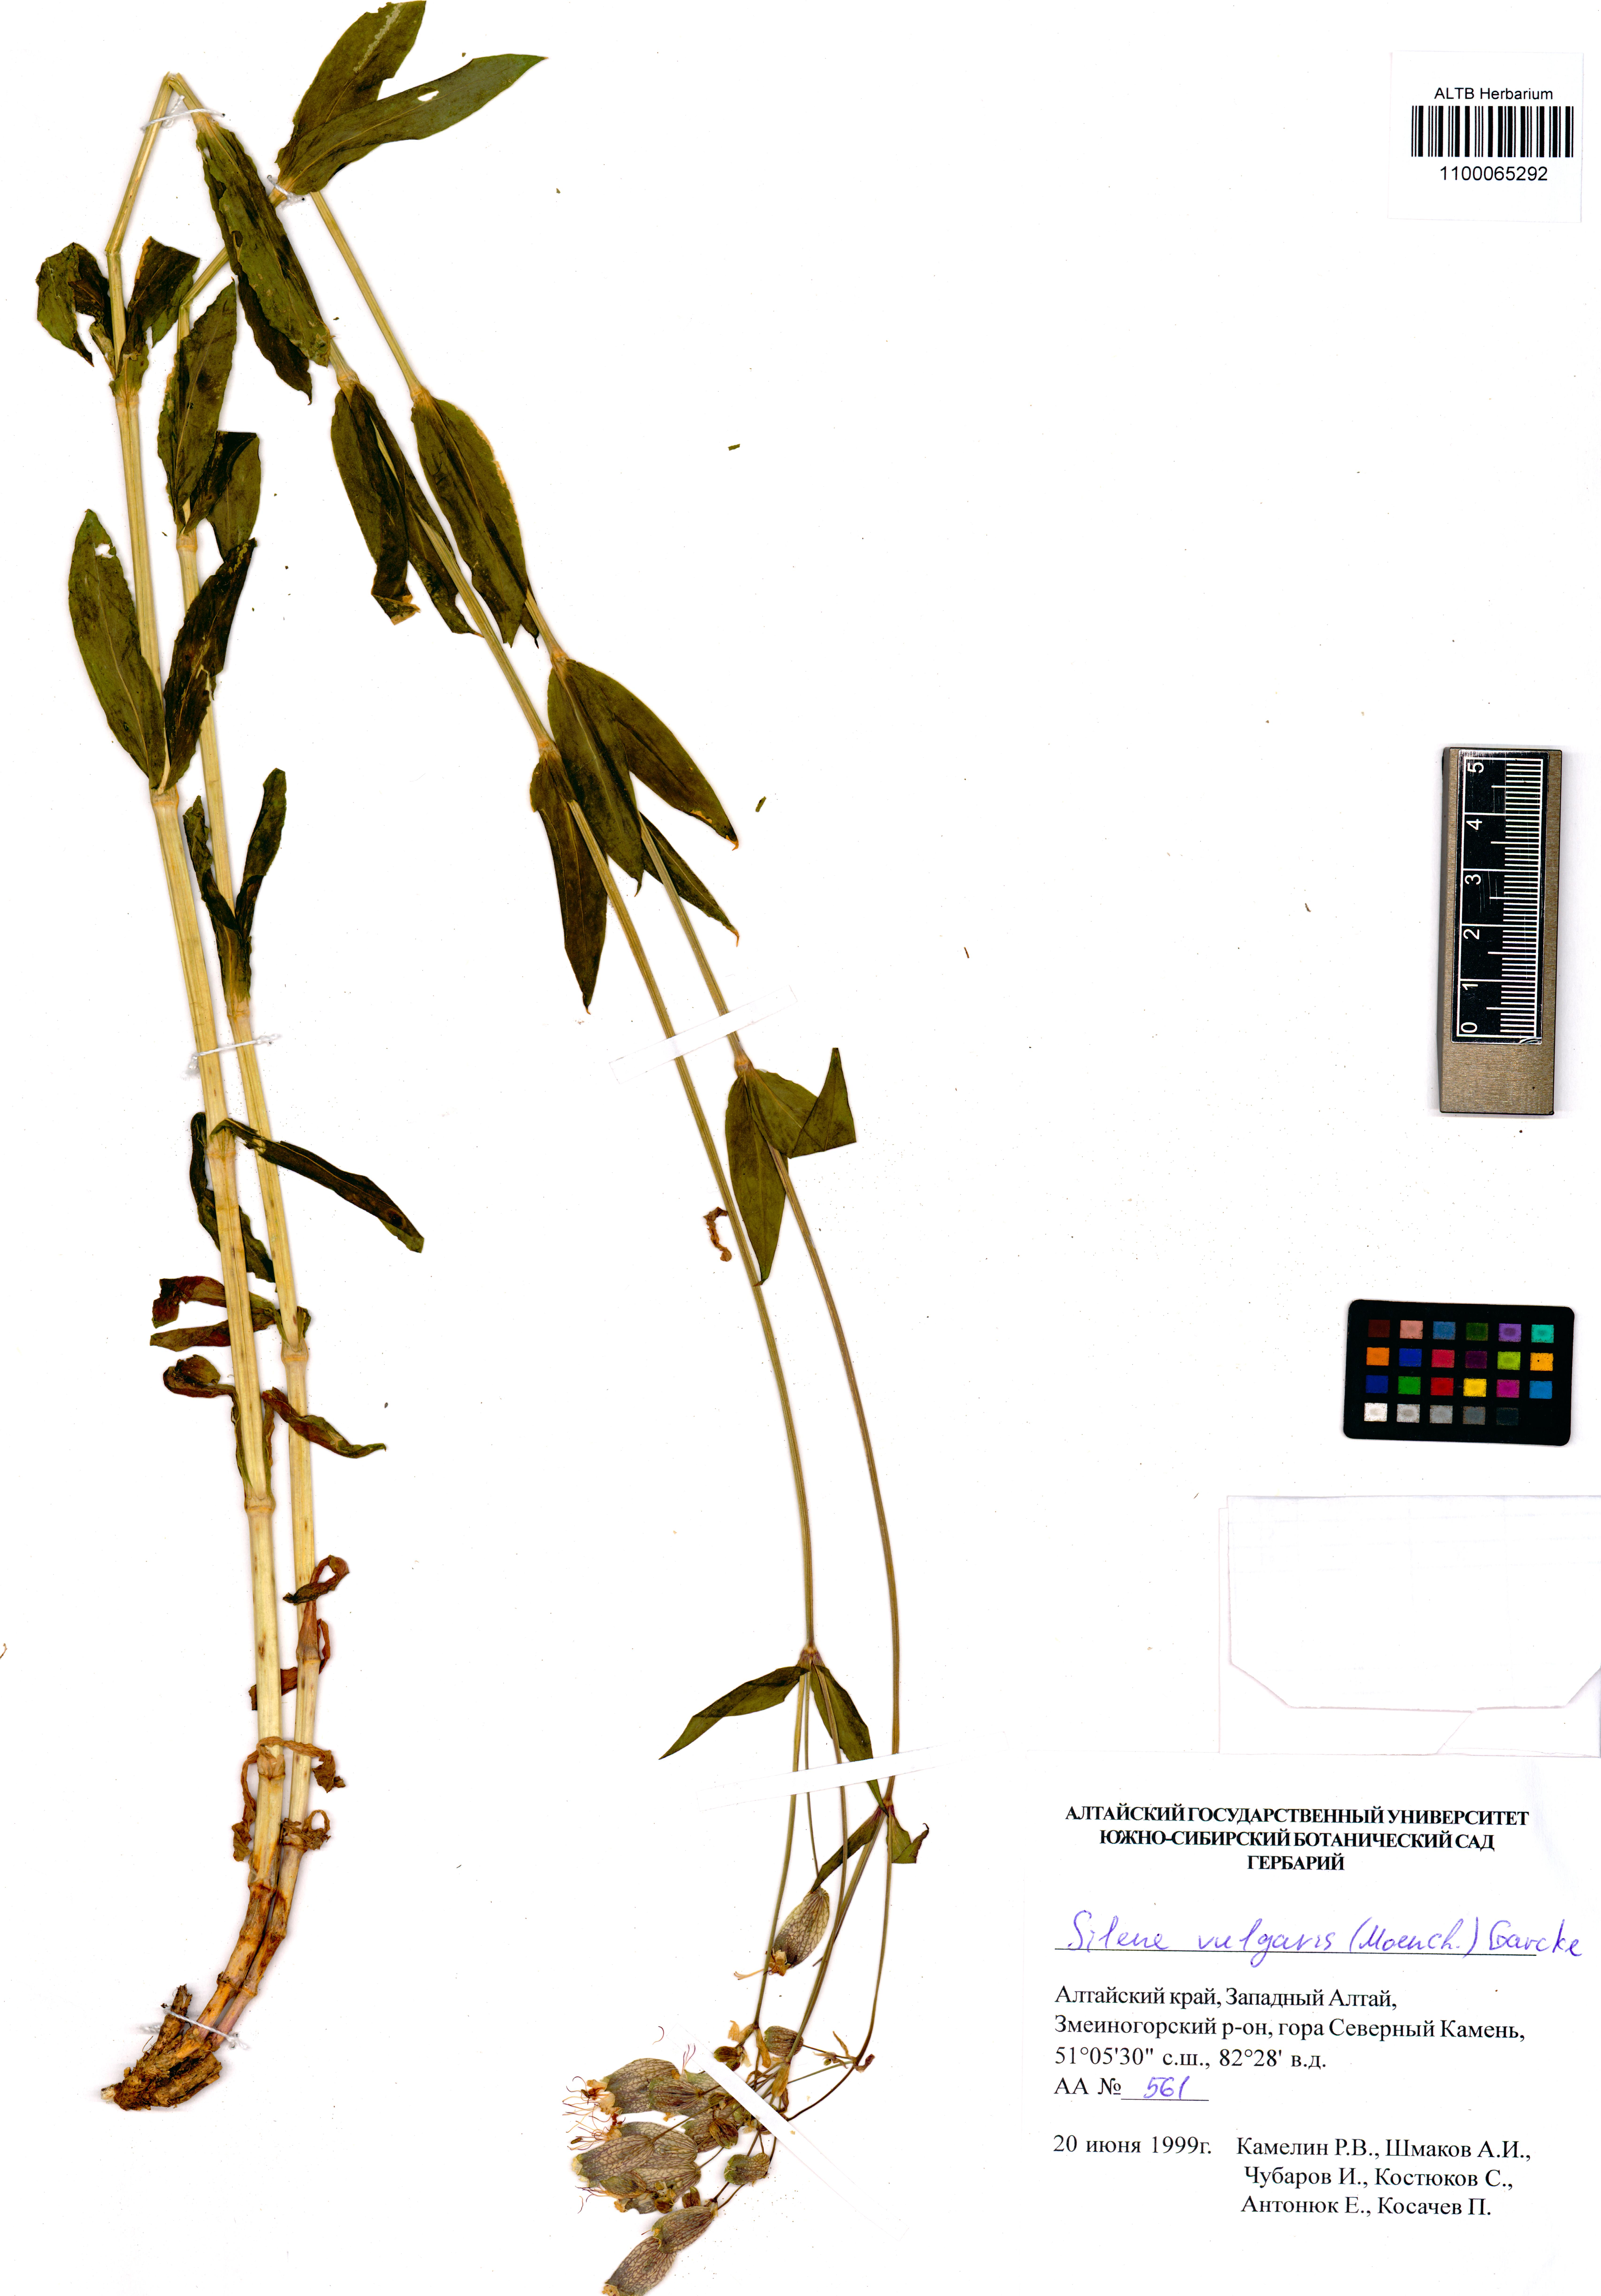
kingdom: Plantae
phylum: Tracheophyta
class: Magnoliopsida
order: Caryophyllales
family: Caryophyllaceae
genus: Silene
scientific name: Silene vulgaris
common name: Bladder campion
